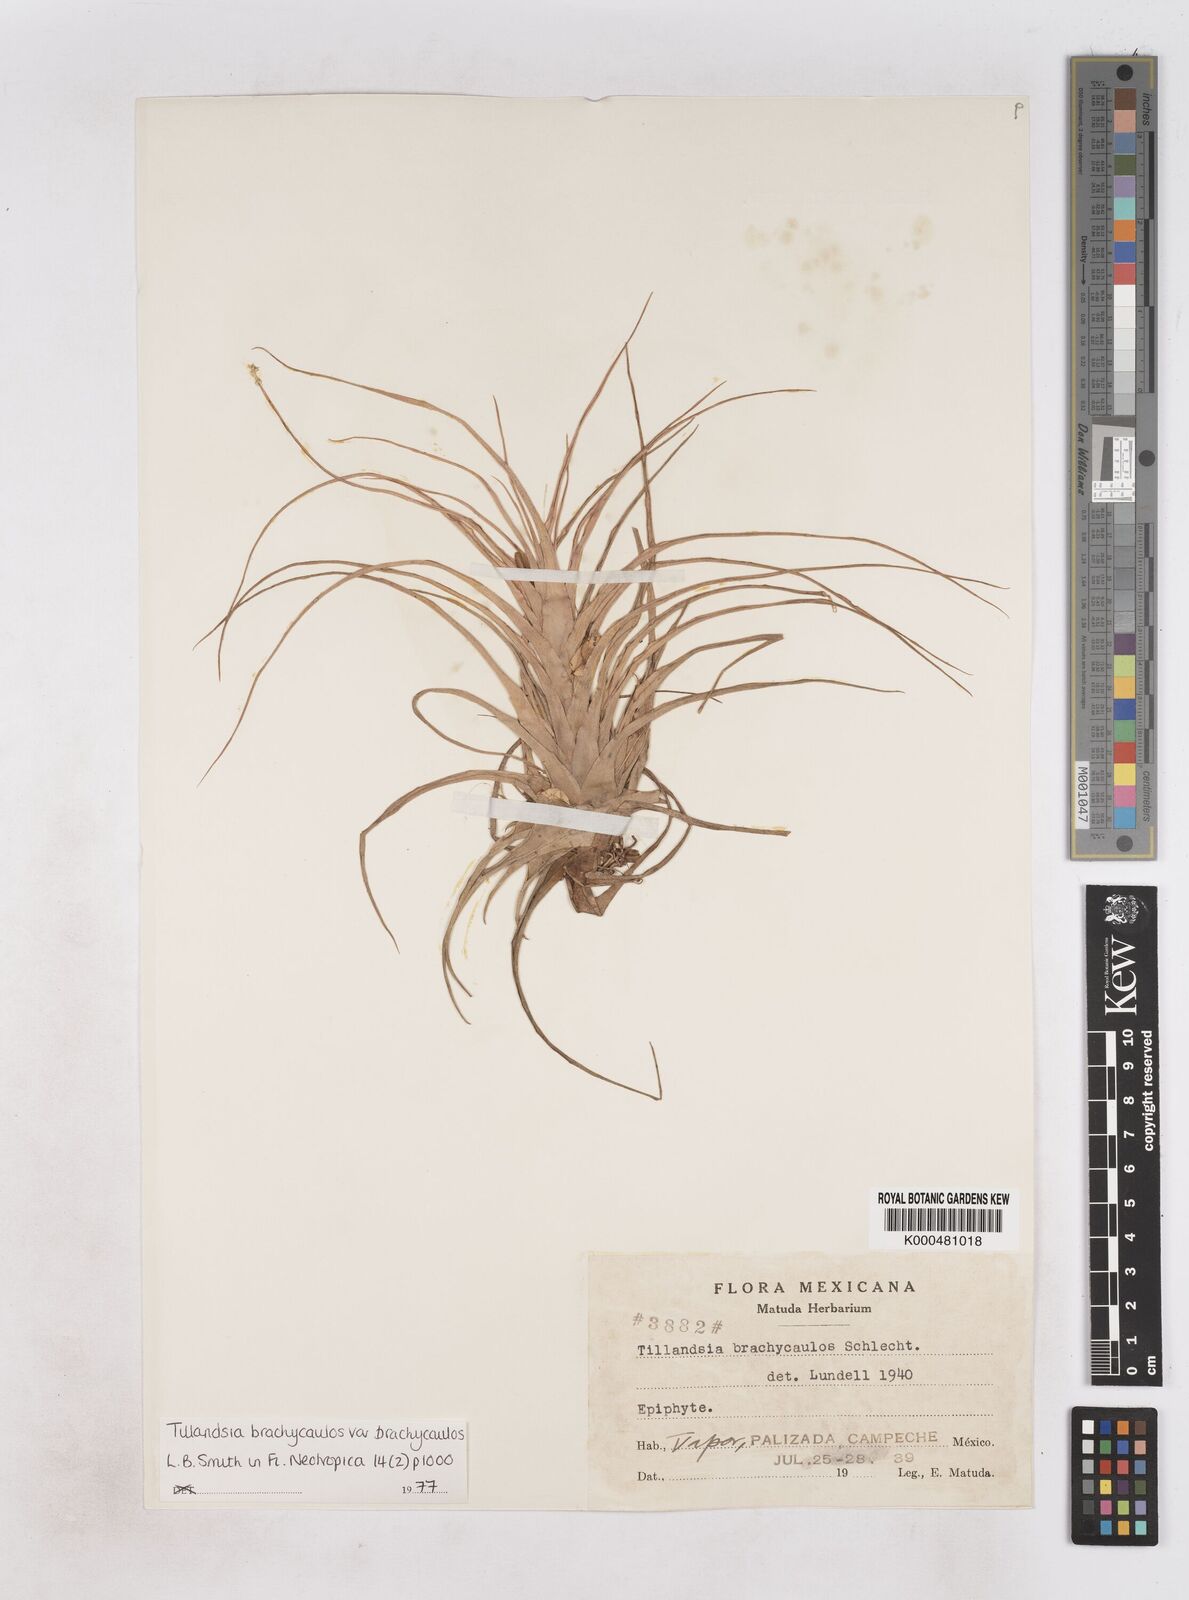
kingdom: Plantae
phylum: Tracheophyta
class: Liliopsida
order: Poales
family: Bromeliaceae
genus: Tillandsia
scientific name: Tillandsia
